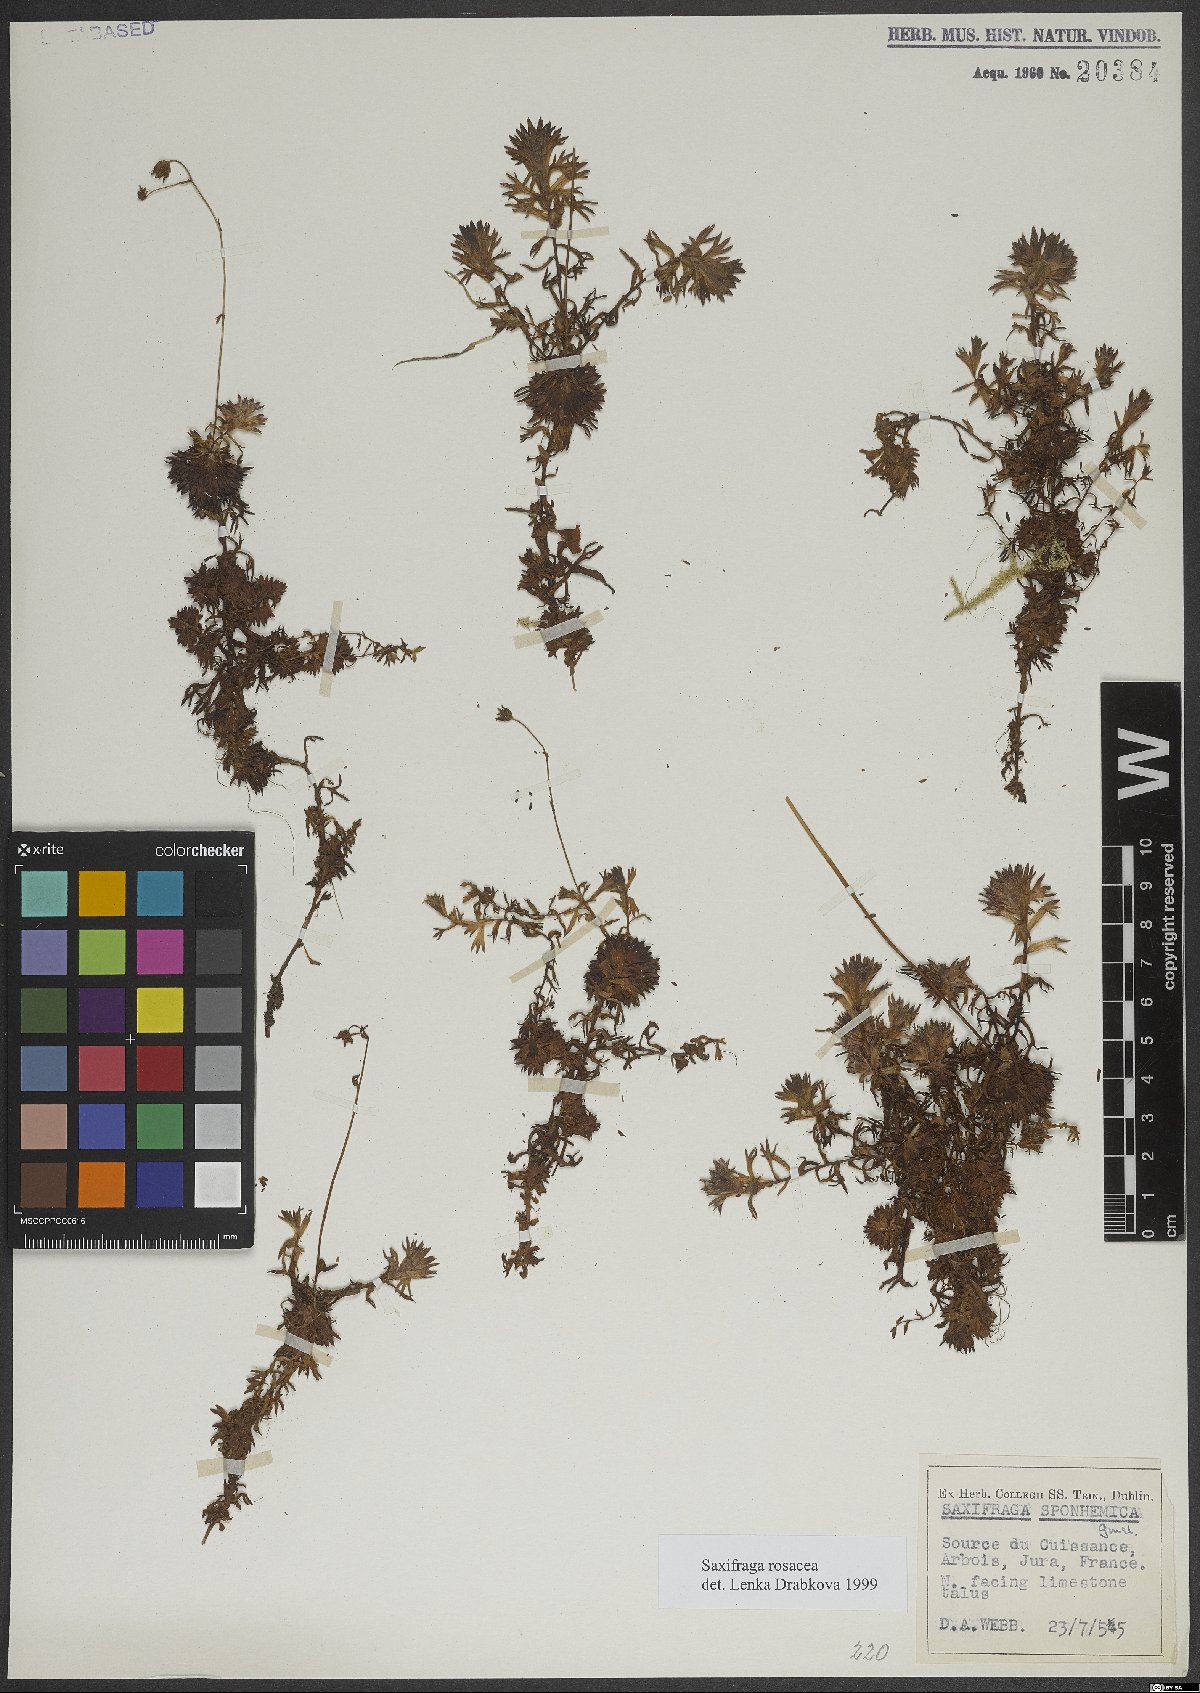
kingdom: Plantae
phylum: Tracheophyta
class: Magnoliopsida
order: Saxifragales
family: Saxifragaceae
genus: Saxifraga
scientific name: Saxifraga rosacea
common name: Irish saxifrage
